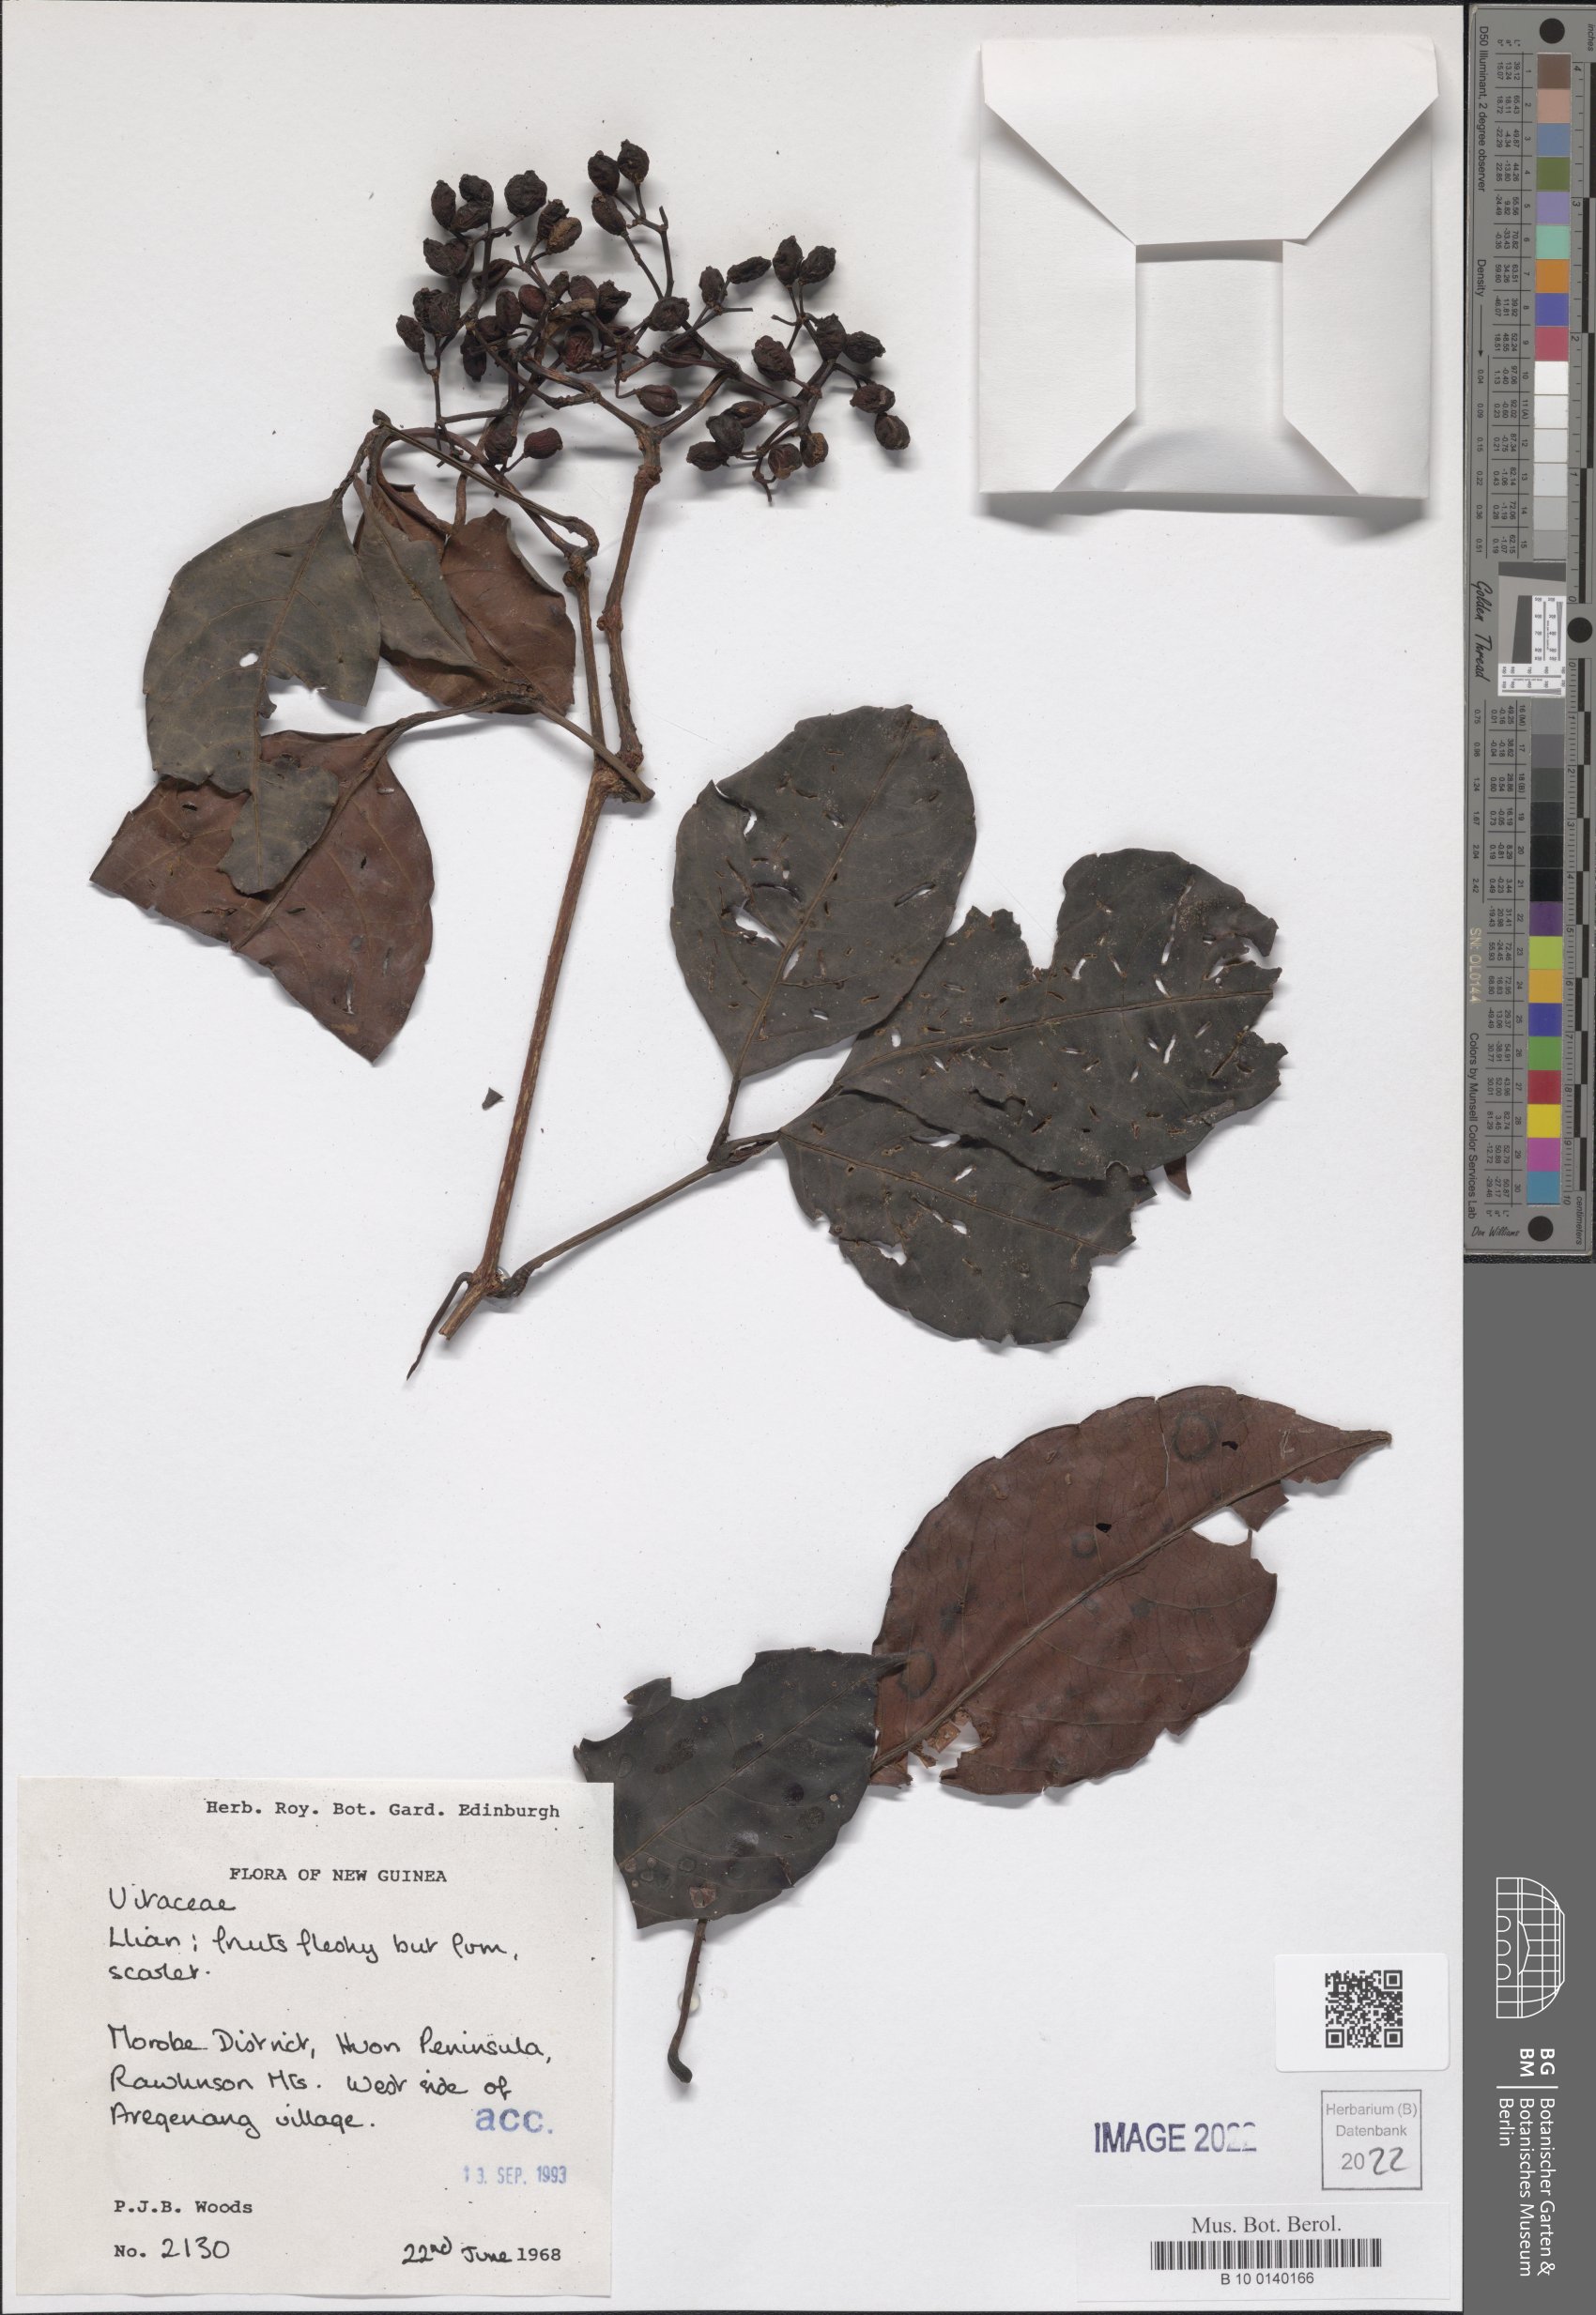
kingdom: Plantae
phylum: Tracheophyta
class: Magnoliopsida
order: Vitales
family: Vitaceae
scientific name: Vitaceae
